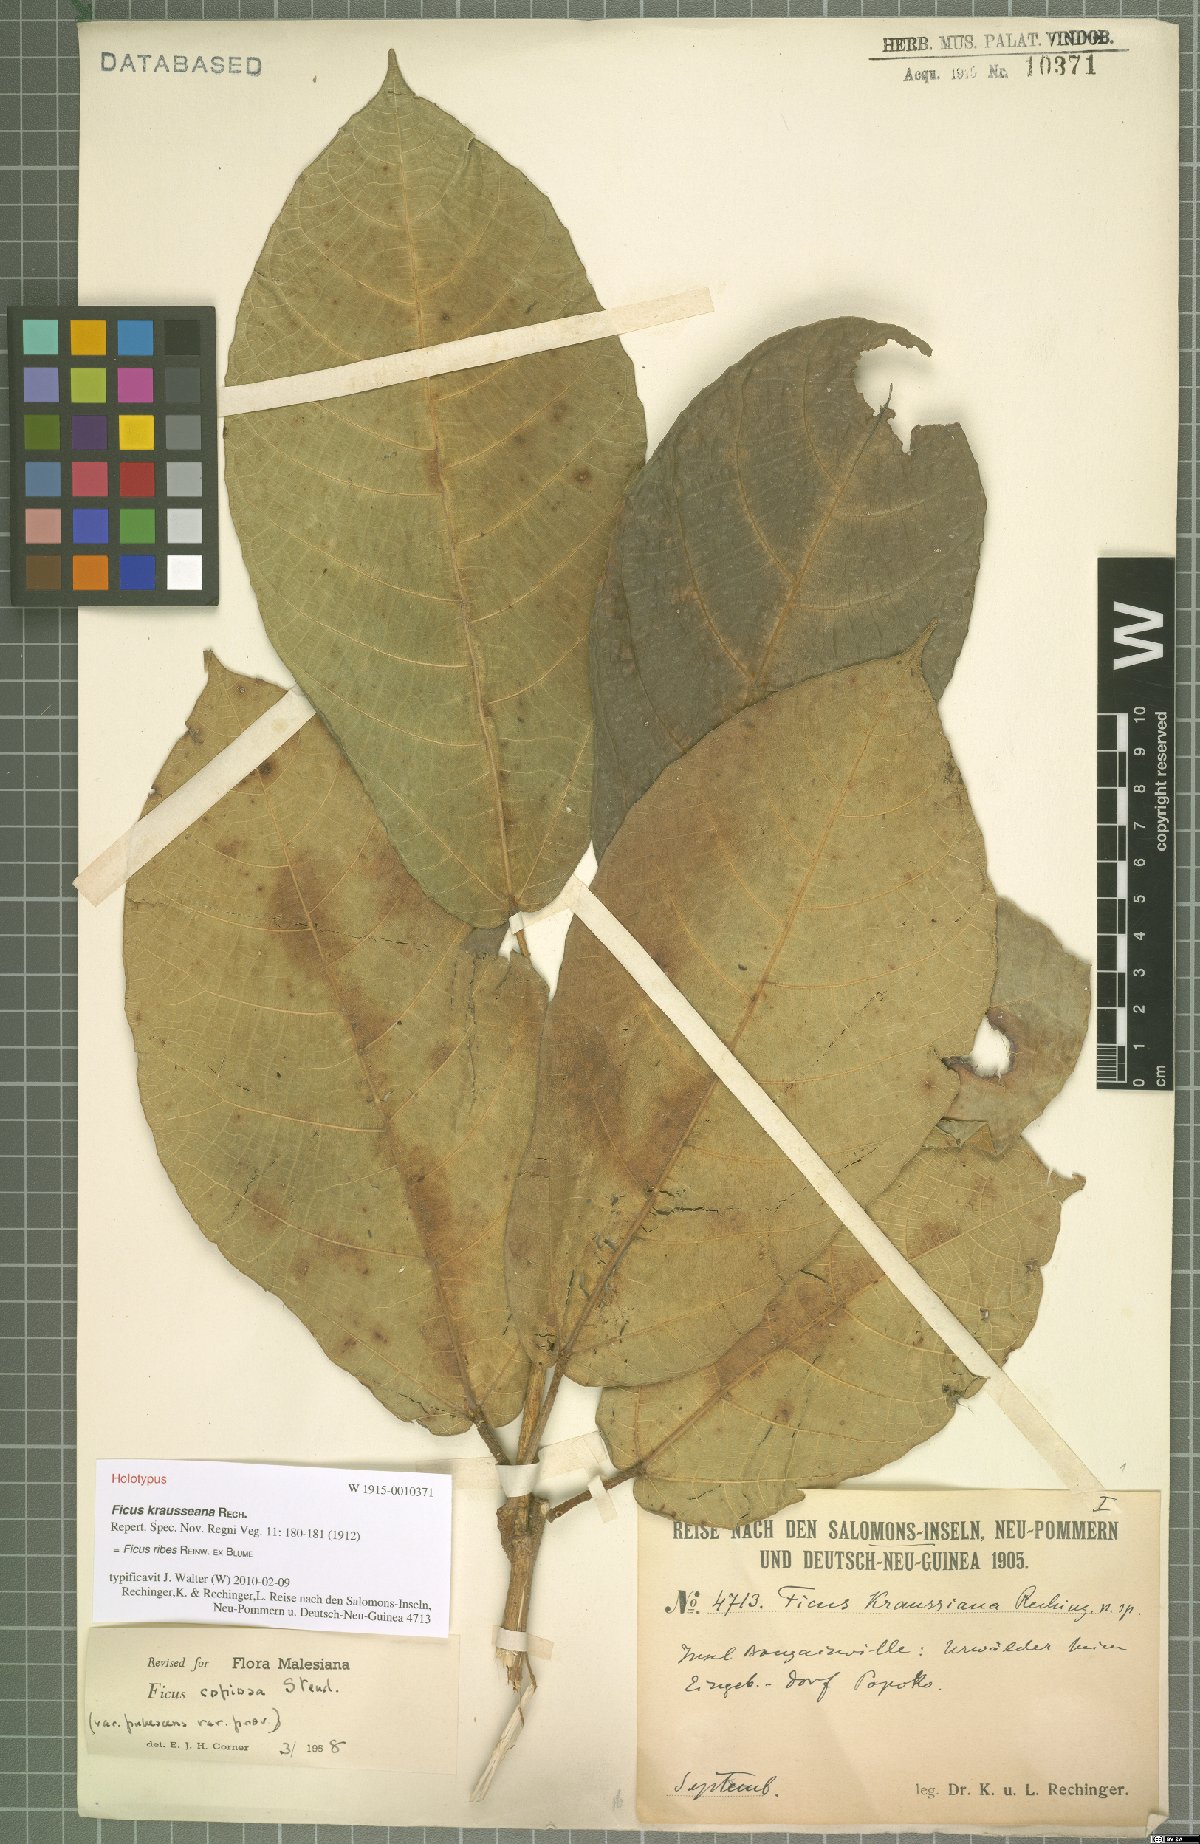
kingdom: Plantae
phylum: Tracheophyta
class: Magnoliopsida
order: Rosales
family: Moraceae
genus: Ficus
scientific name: Ficus ribes
